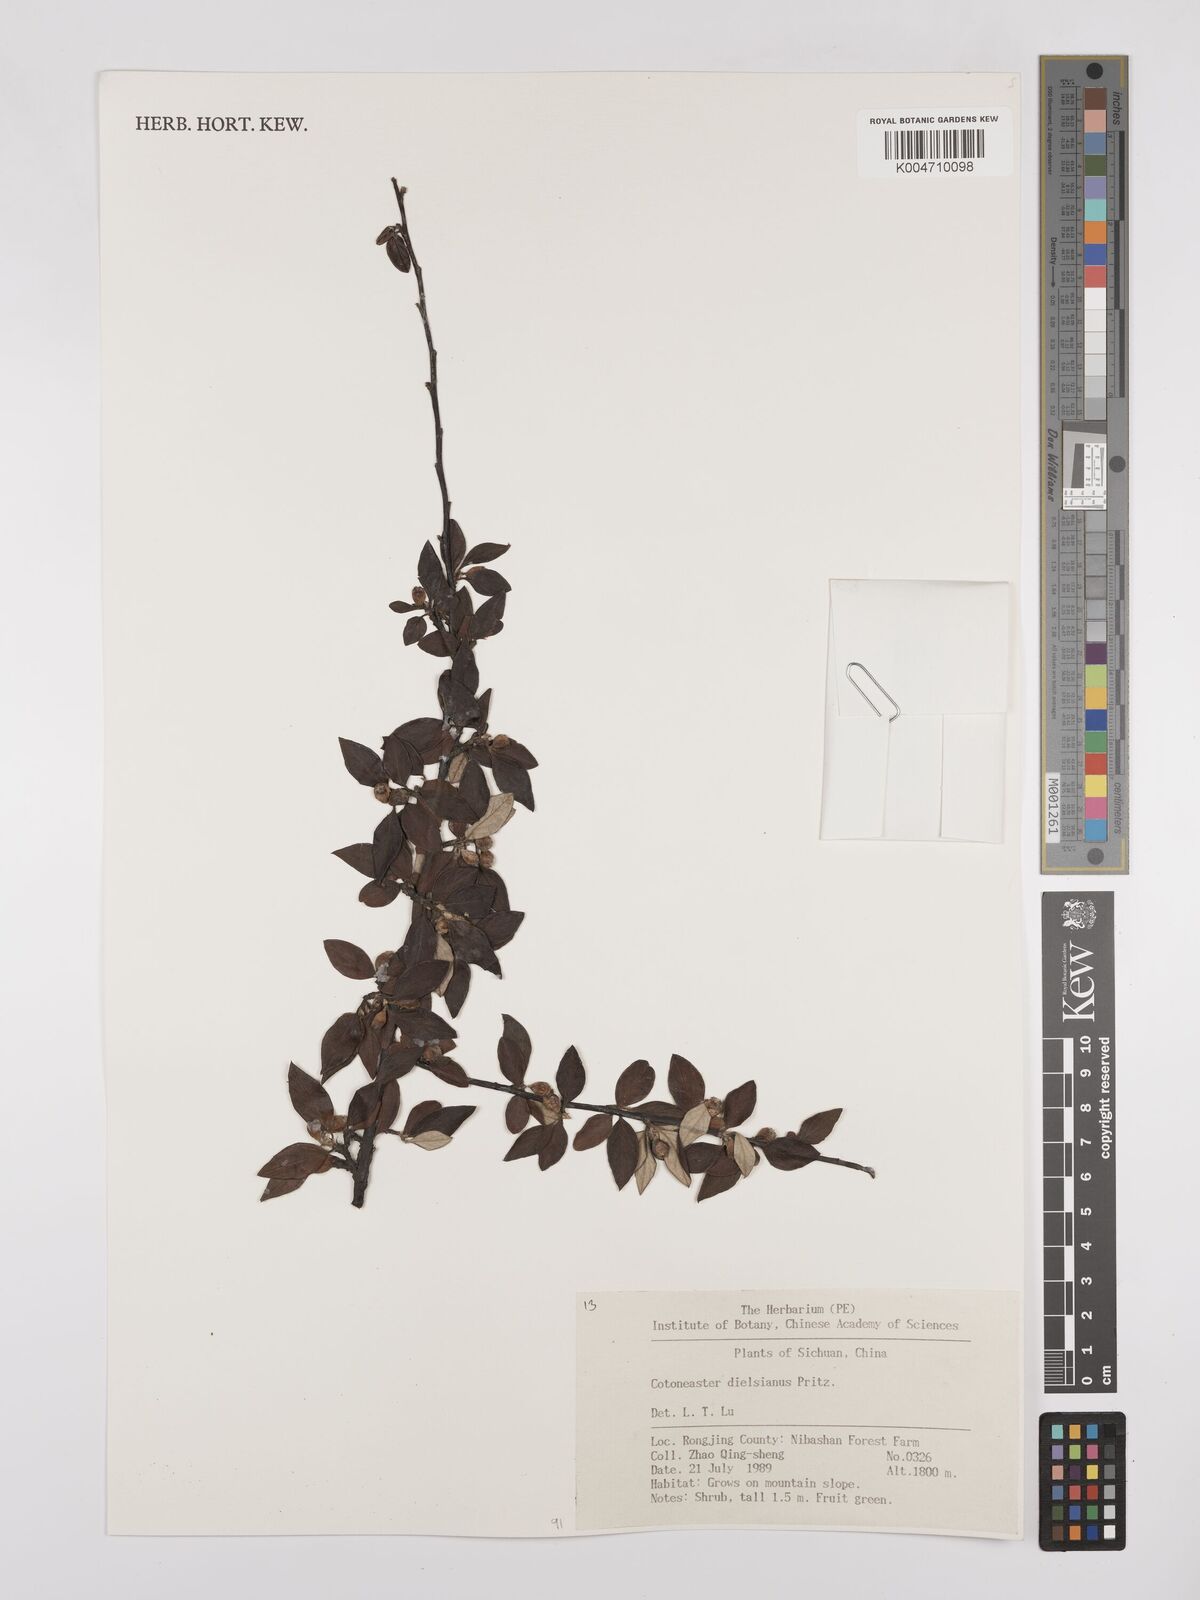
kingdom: Plantae
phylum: Tracheophyta
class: Magnoliopsida
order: Rosales
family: Rosaceae
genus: Cotoneaster
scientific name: Cotoneaster dielsianus
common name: Diels's cotoneaster
